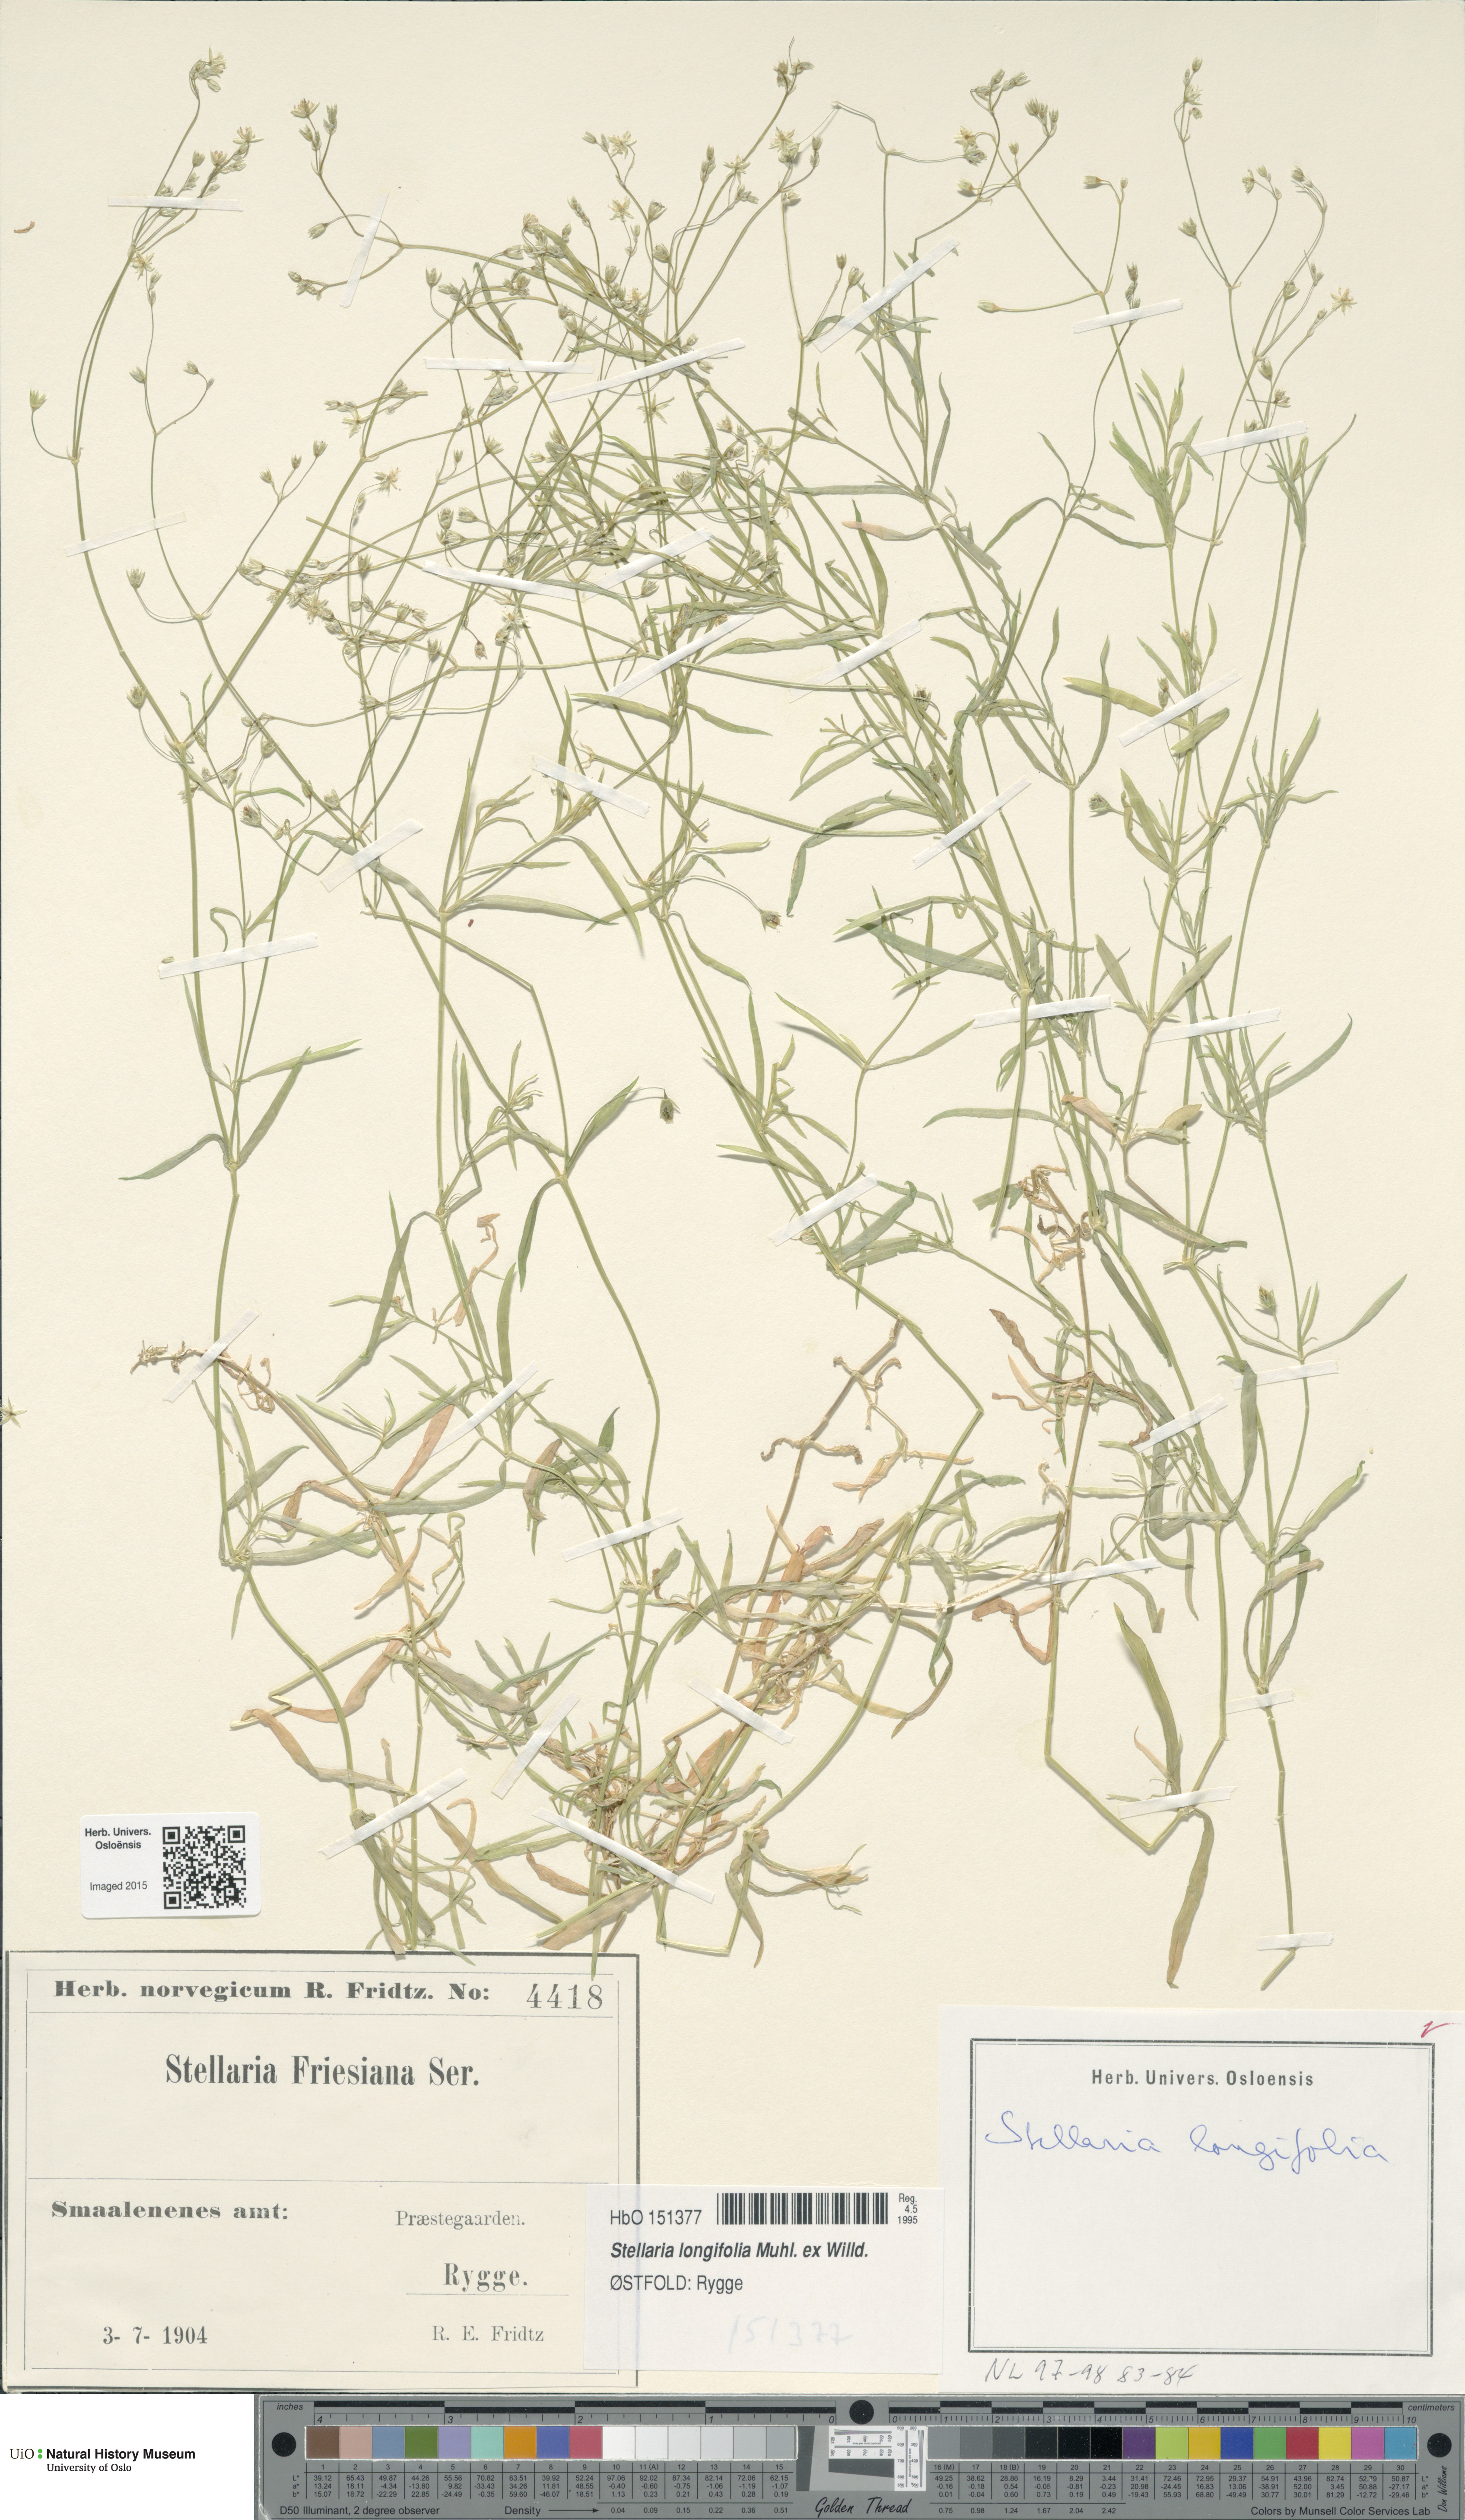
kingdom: Plantae
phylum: Tracheophyta
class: Magnoliopsida
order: Caryophyllales
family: Caryophyllaceae
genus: Stellaria
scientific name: Stellaria longifolia
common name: Long-leaved chickweed
